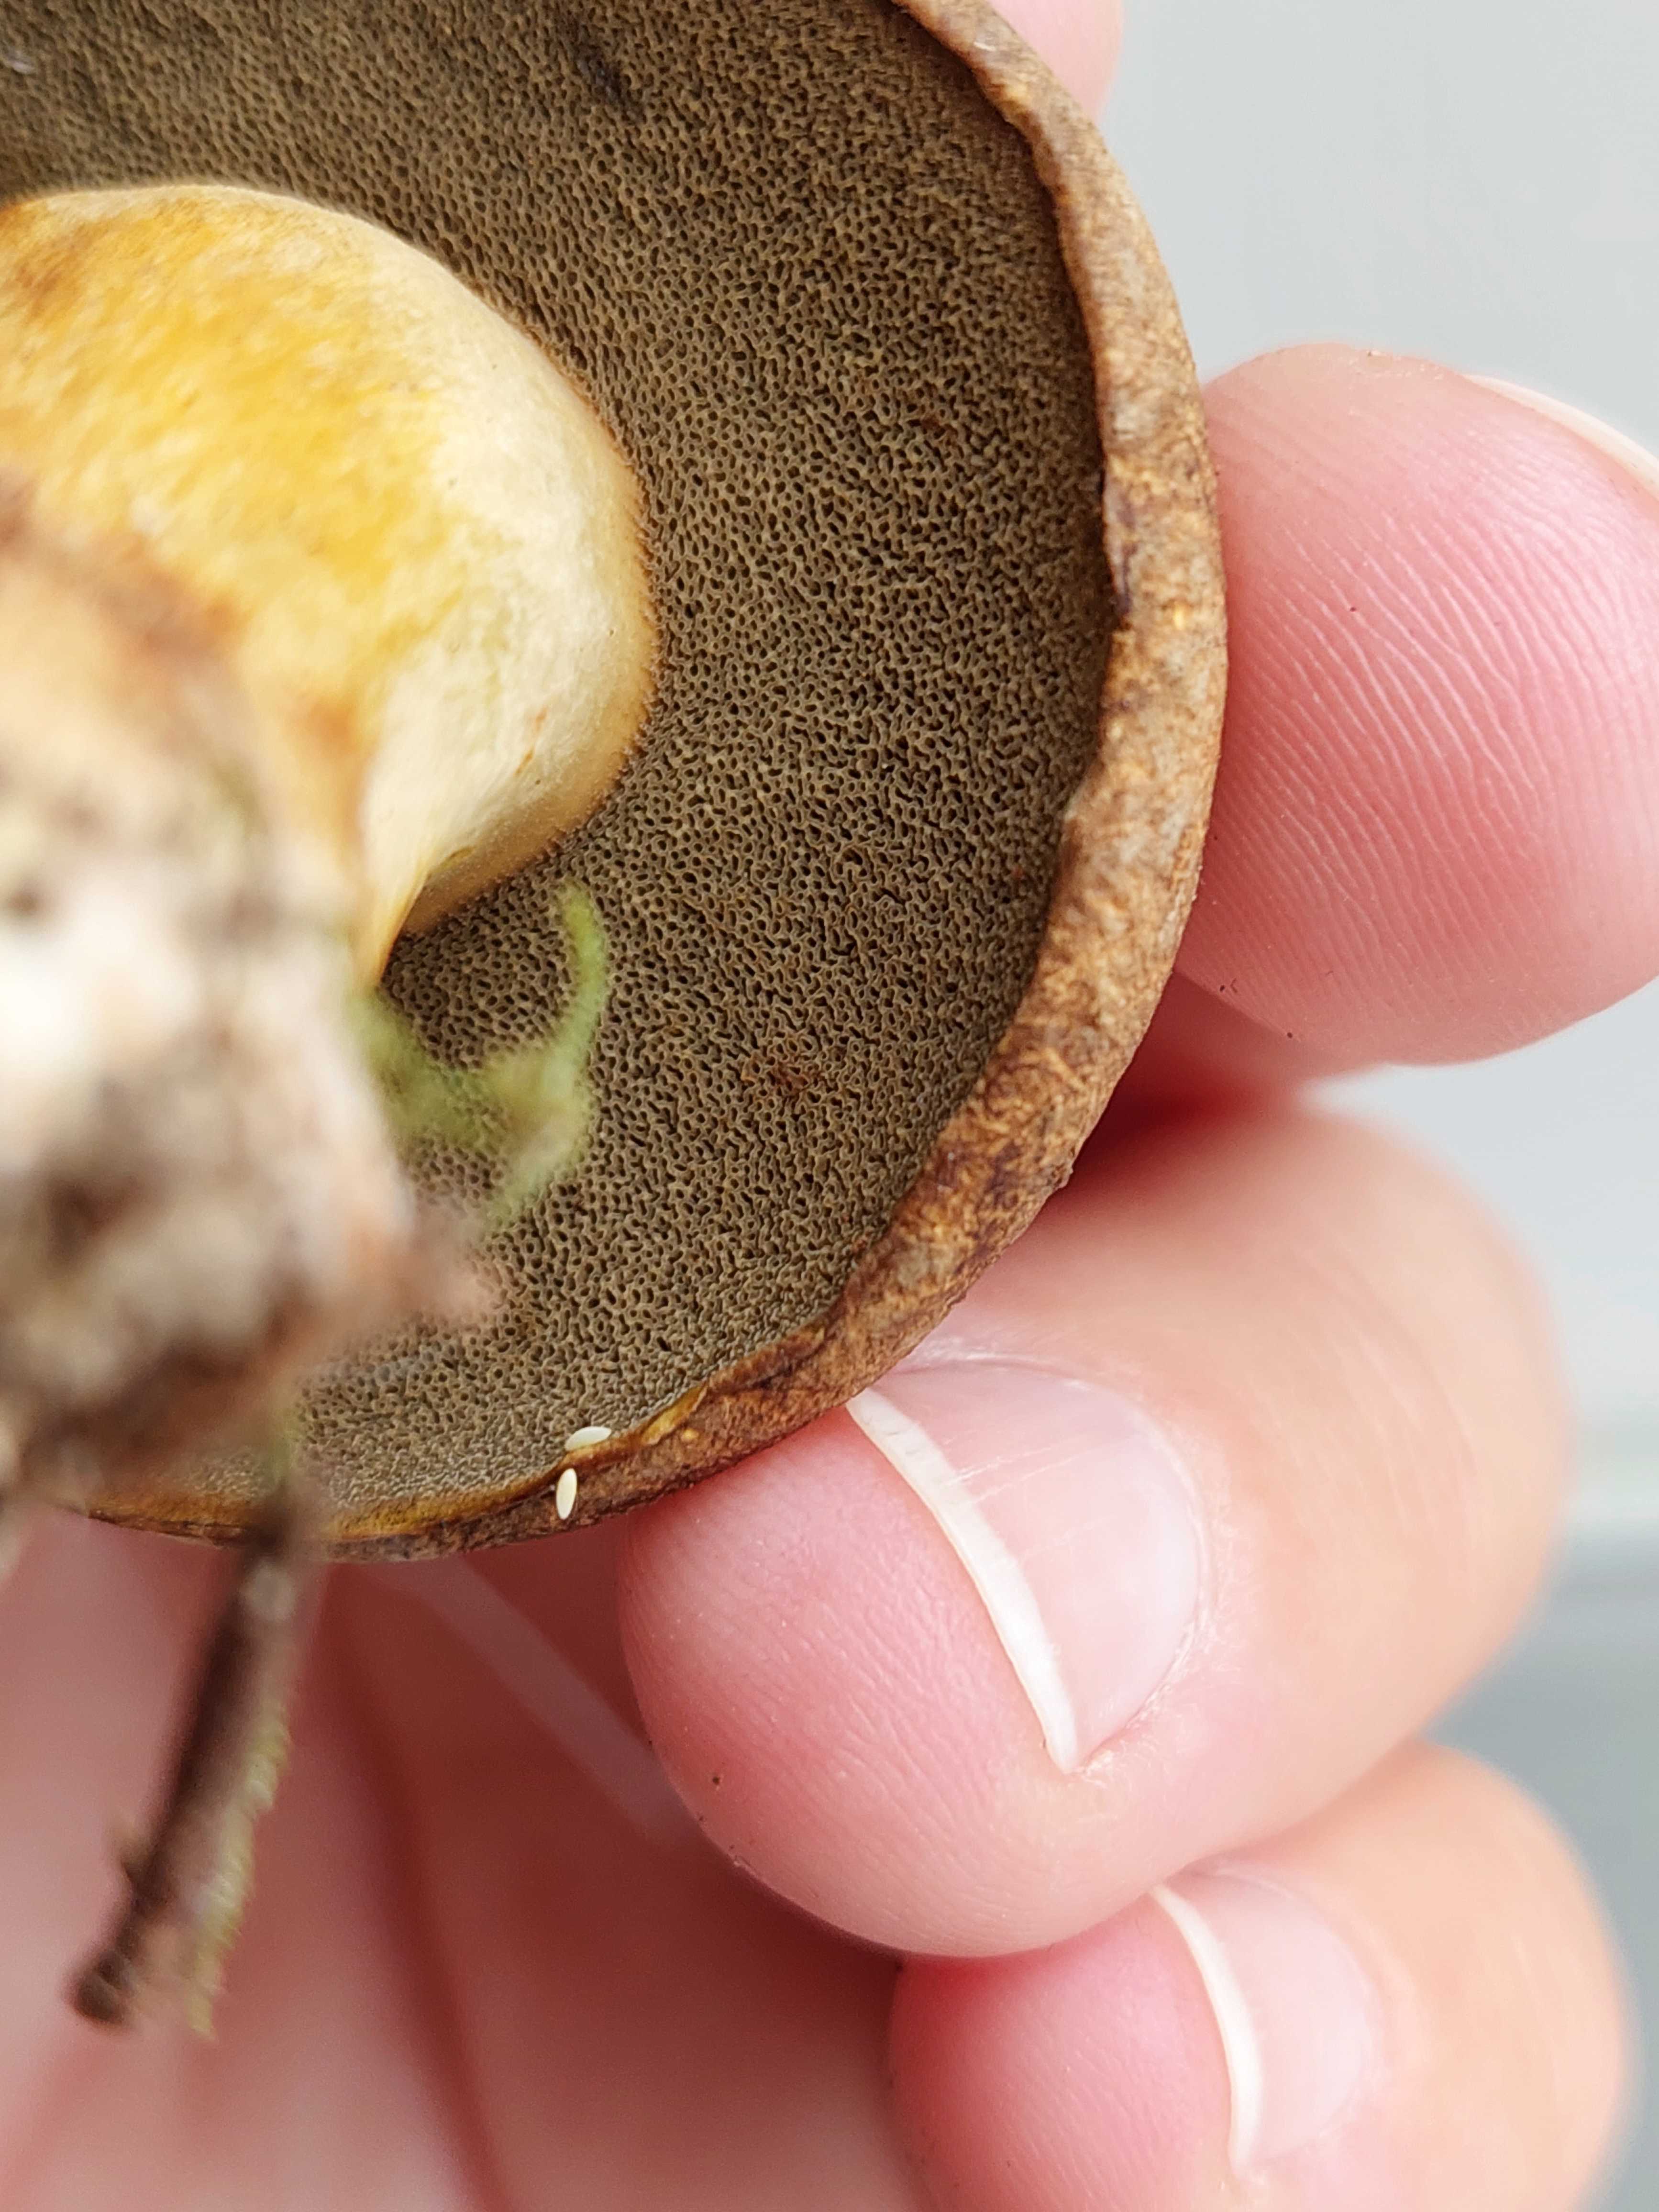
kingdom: Fungi
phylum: Basidiomycota
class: Agaricomycetes
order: Boletales
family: Suillaceae
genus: Suillus
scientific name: Suillus variegatus
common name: broget slimrørhat
